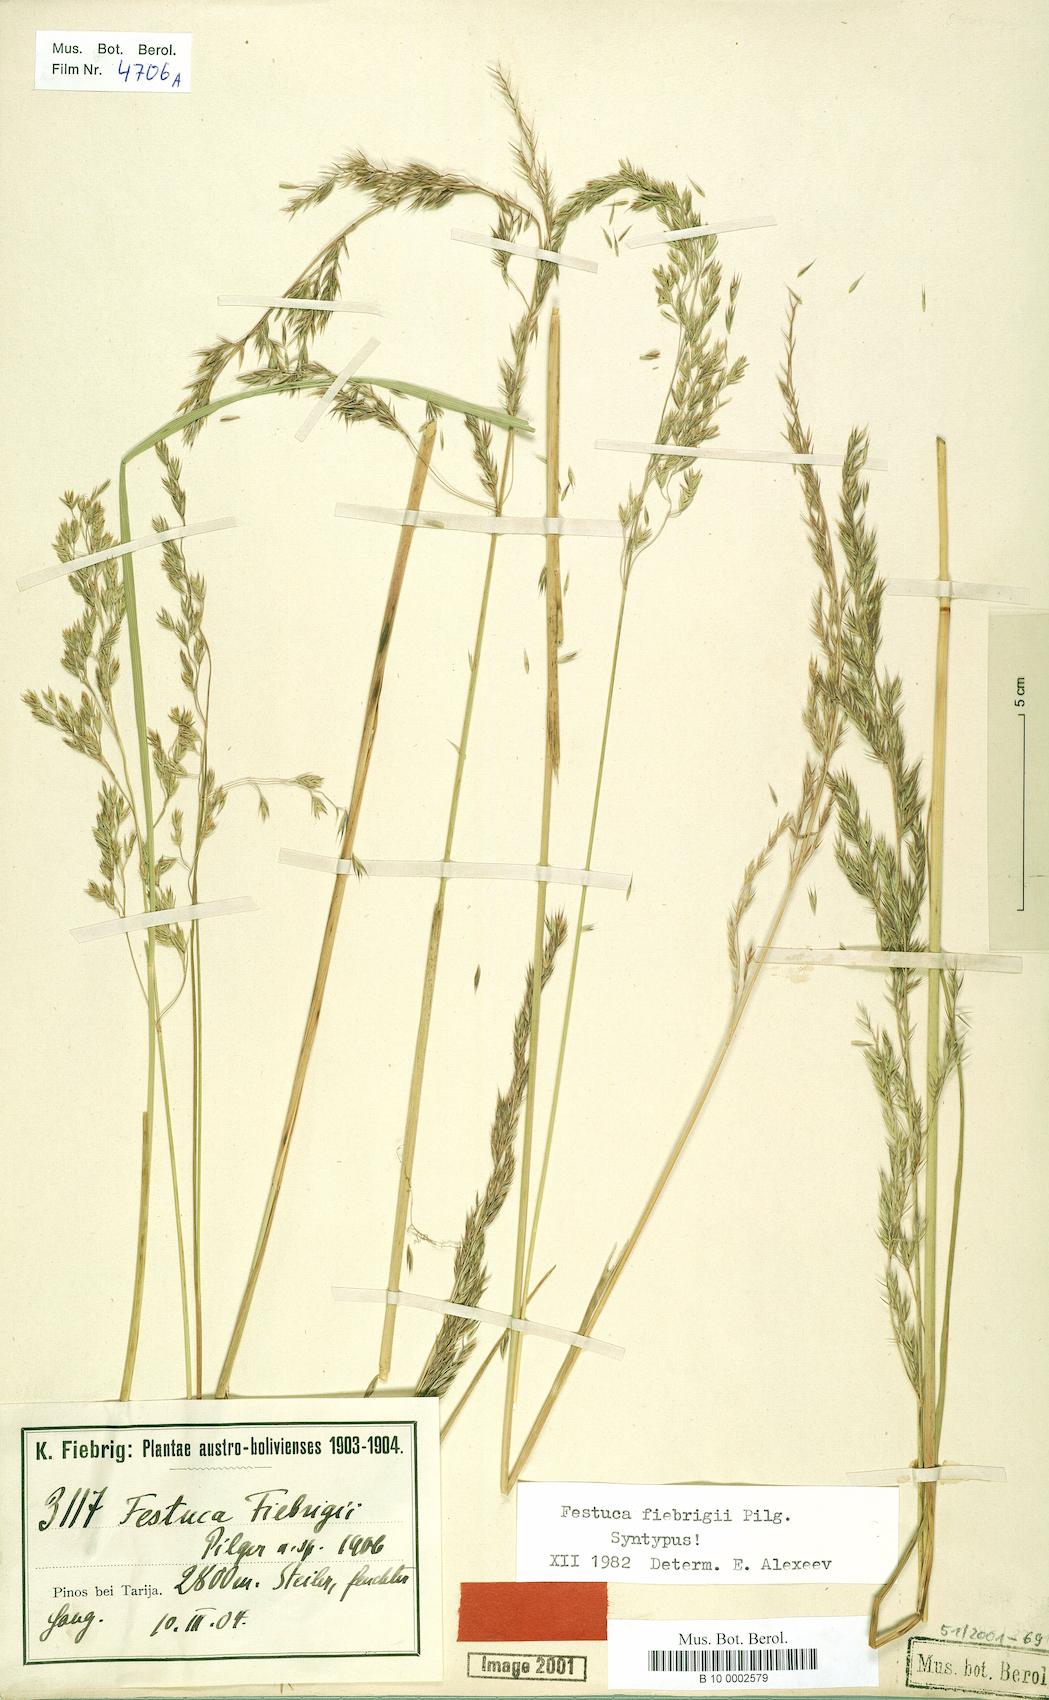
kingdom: Plantae
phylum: Tracheophyta
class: Liliopsida
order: Poales
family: Poaceae
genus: Festuca
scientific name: Festuca fiebrigii
